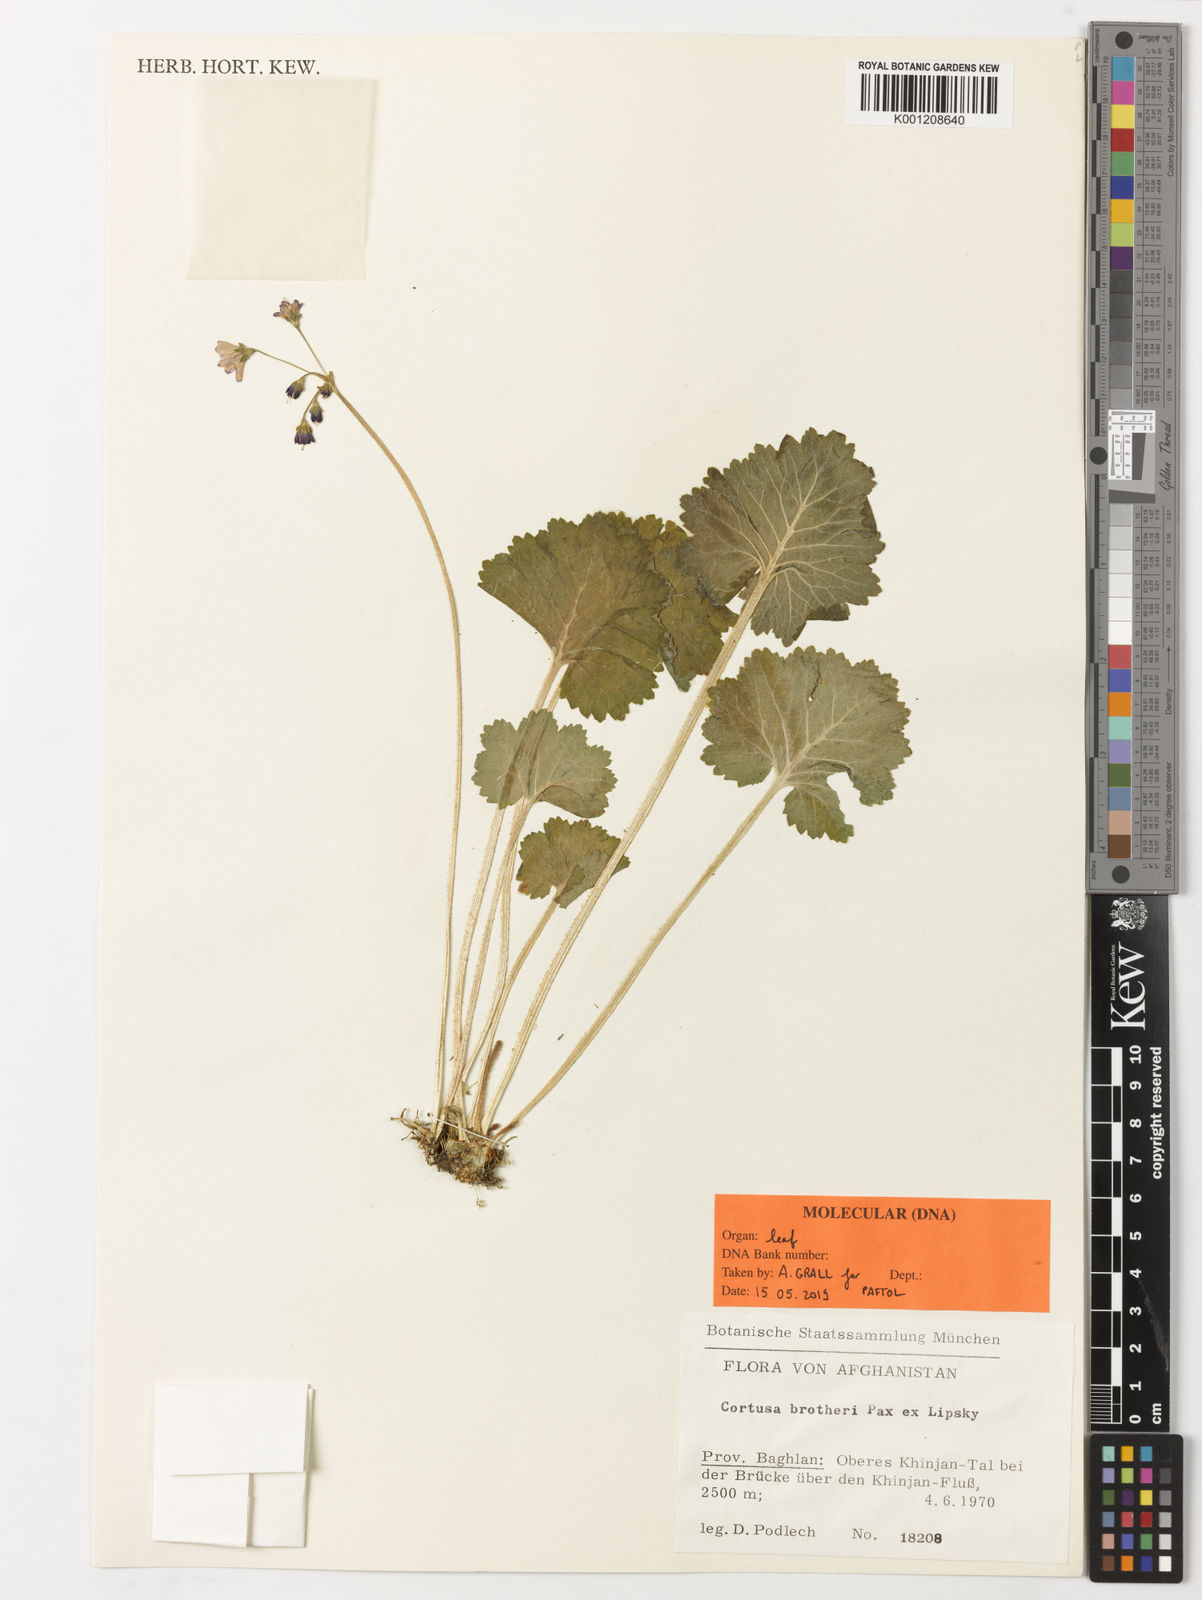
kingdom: Plantae
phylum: Tracheophyta
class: Magnoliopsida
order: Ericales
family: Primulaceae
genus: Primula
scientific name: Primula matthioli
